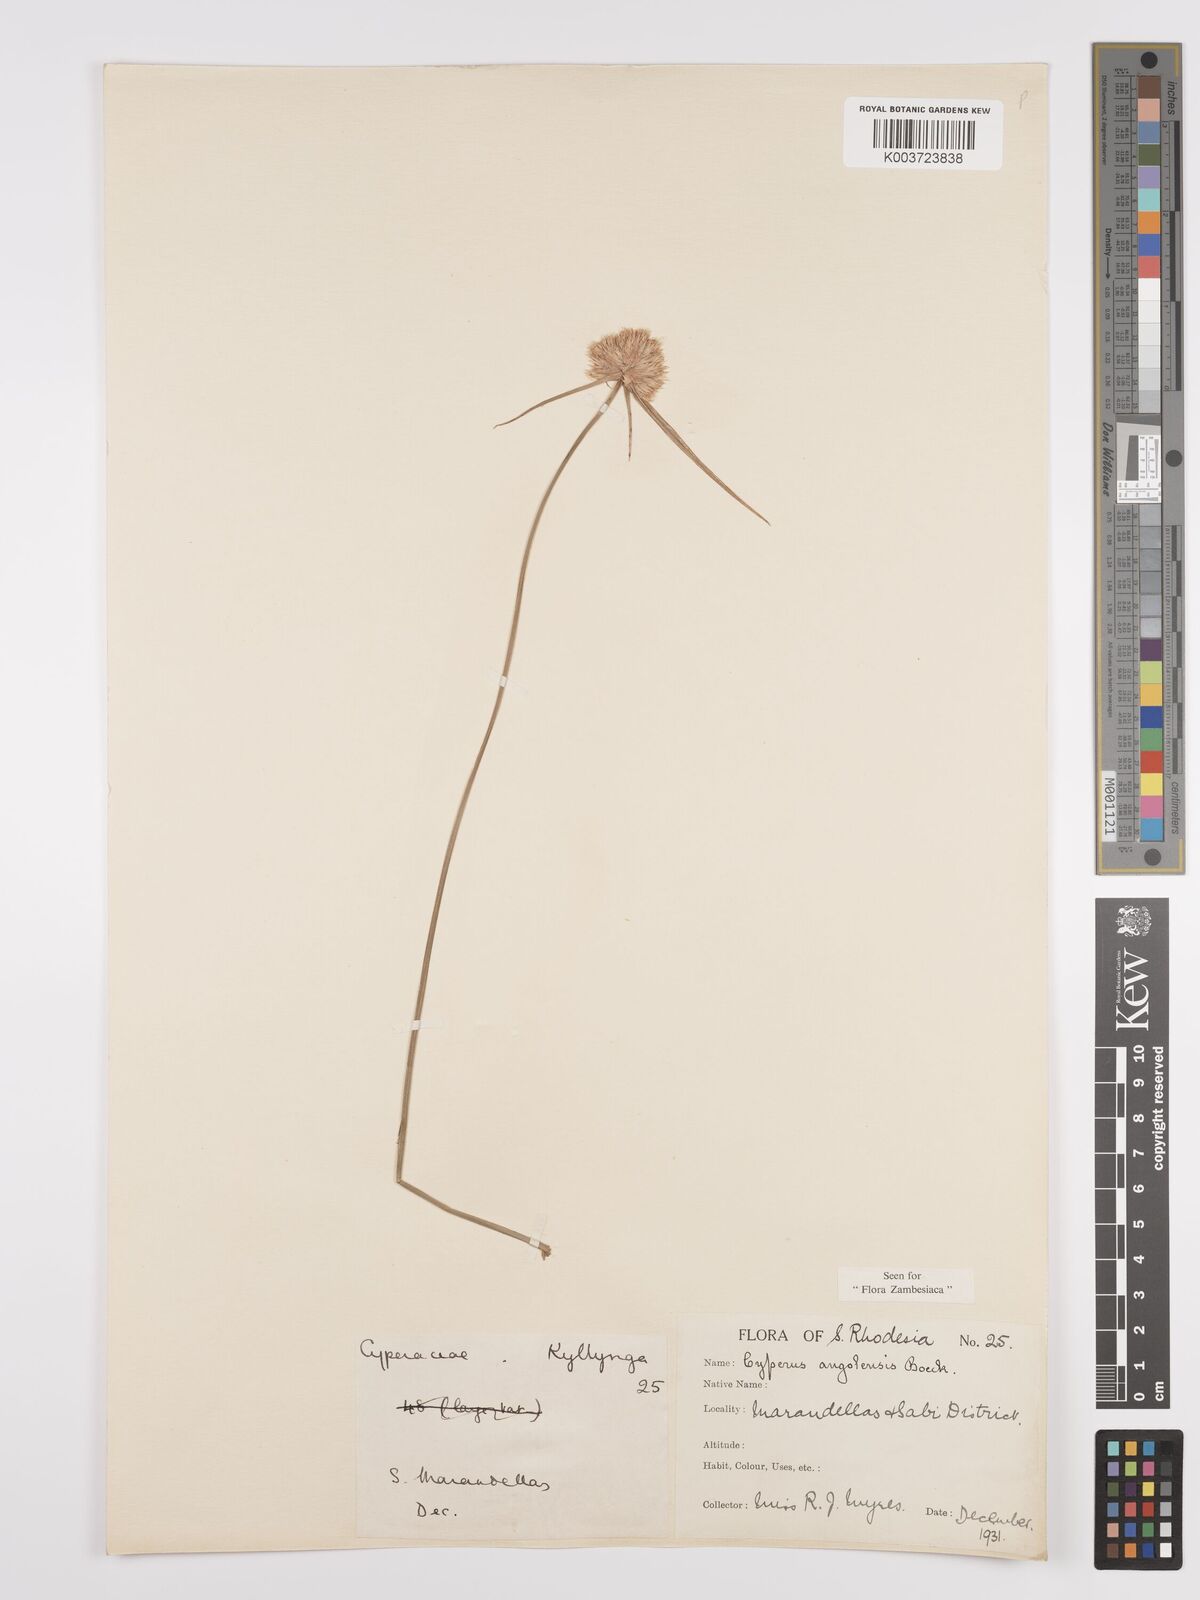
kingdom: Plantae
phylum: Tracheophyta
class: Liliopsida
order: Poales
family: Cyperaceae
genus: Cyperus
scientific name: Cyperus angolensis
